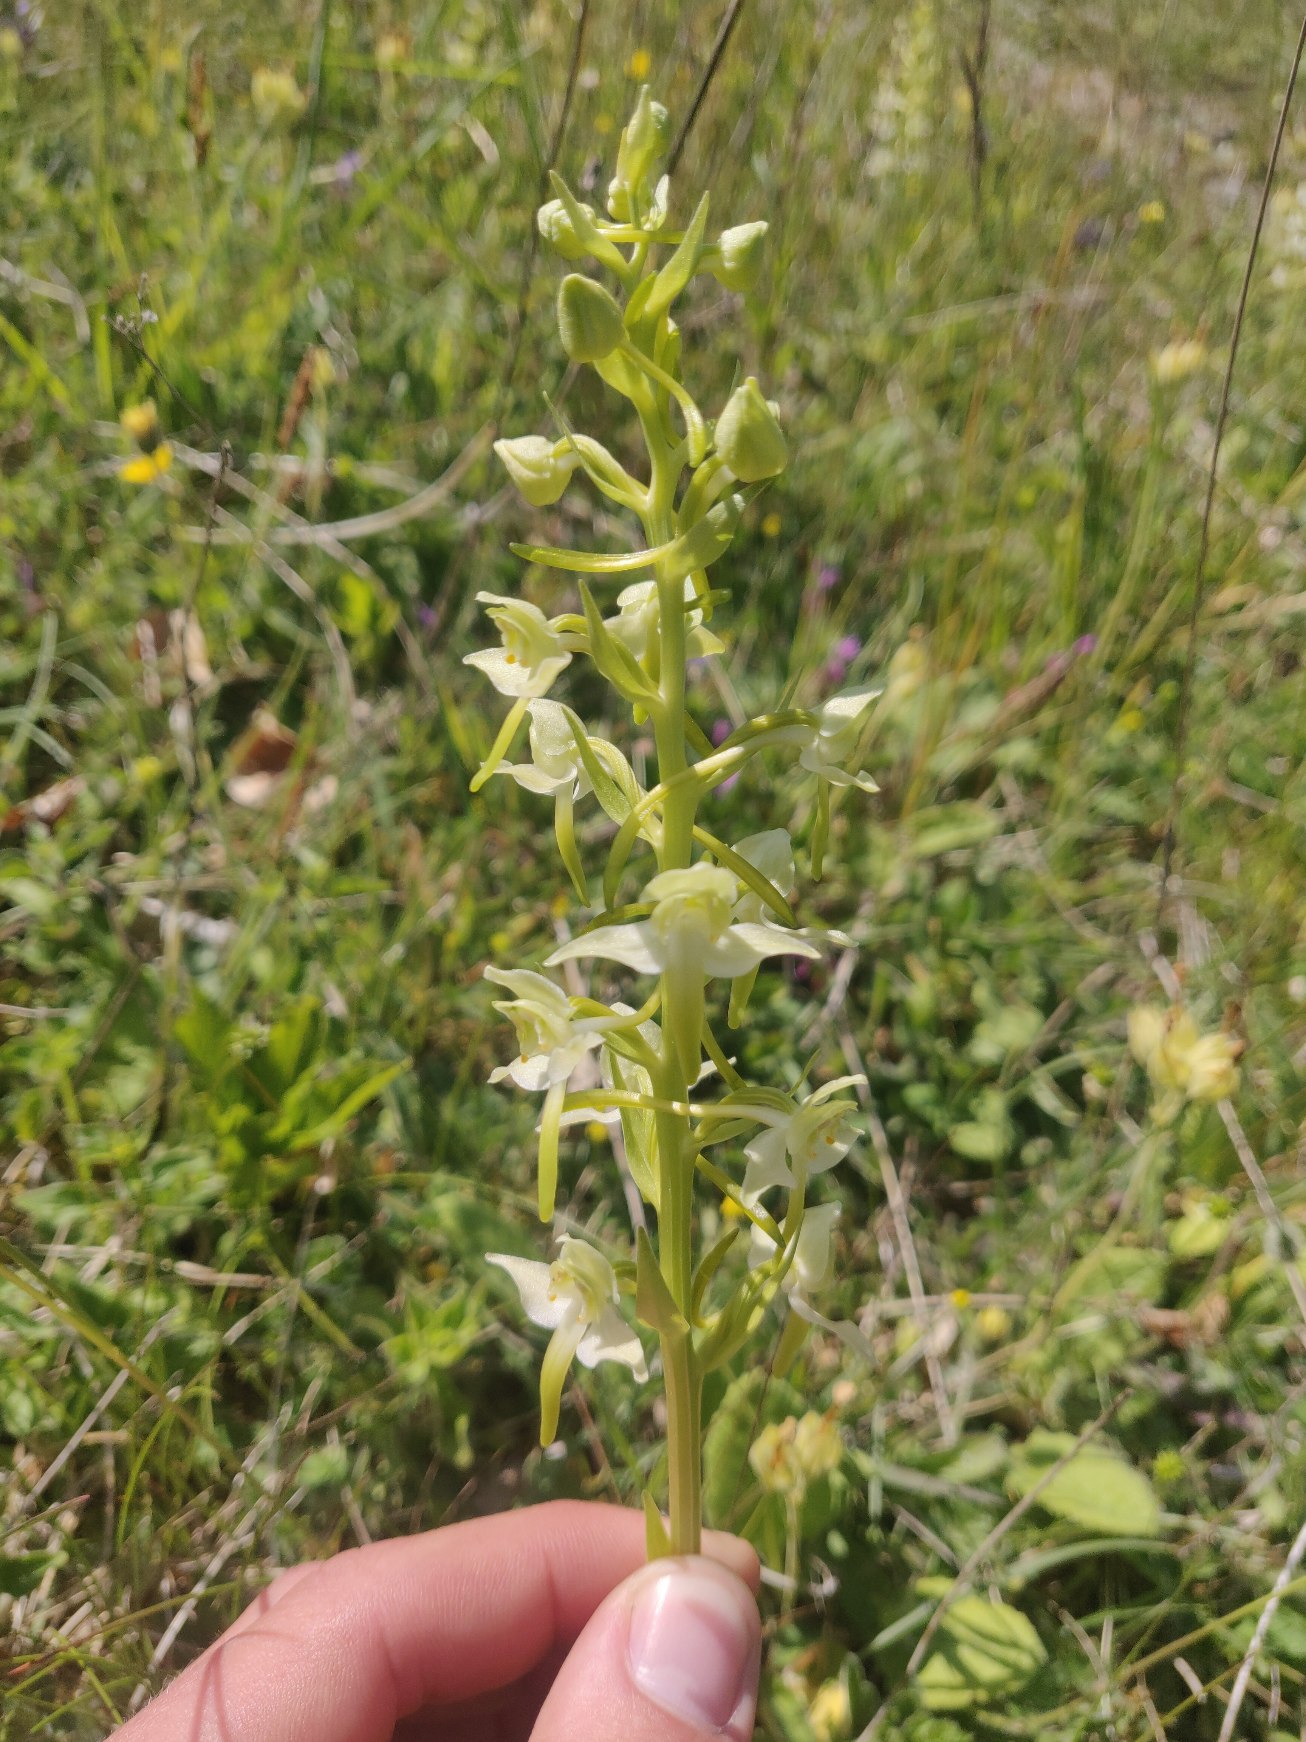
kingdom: Plantae
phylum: Tracheophyta
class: Liliopsida
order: Asparagales
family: Orchidaceae
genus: Platanthera
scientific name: Platanthera chlorantha
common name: Skov-gøgelilje
